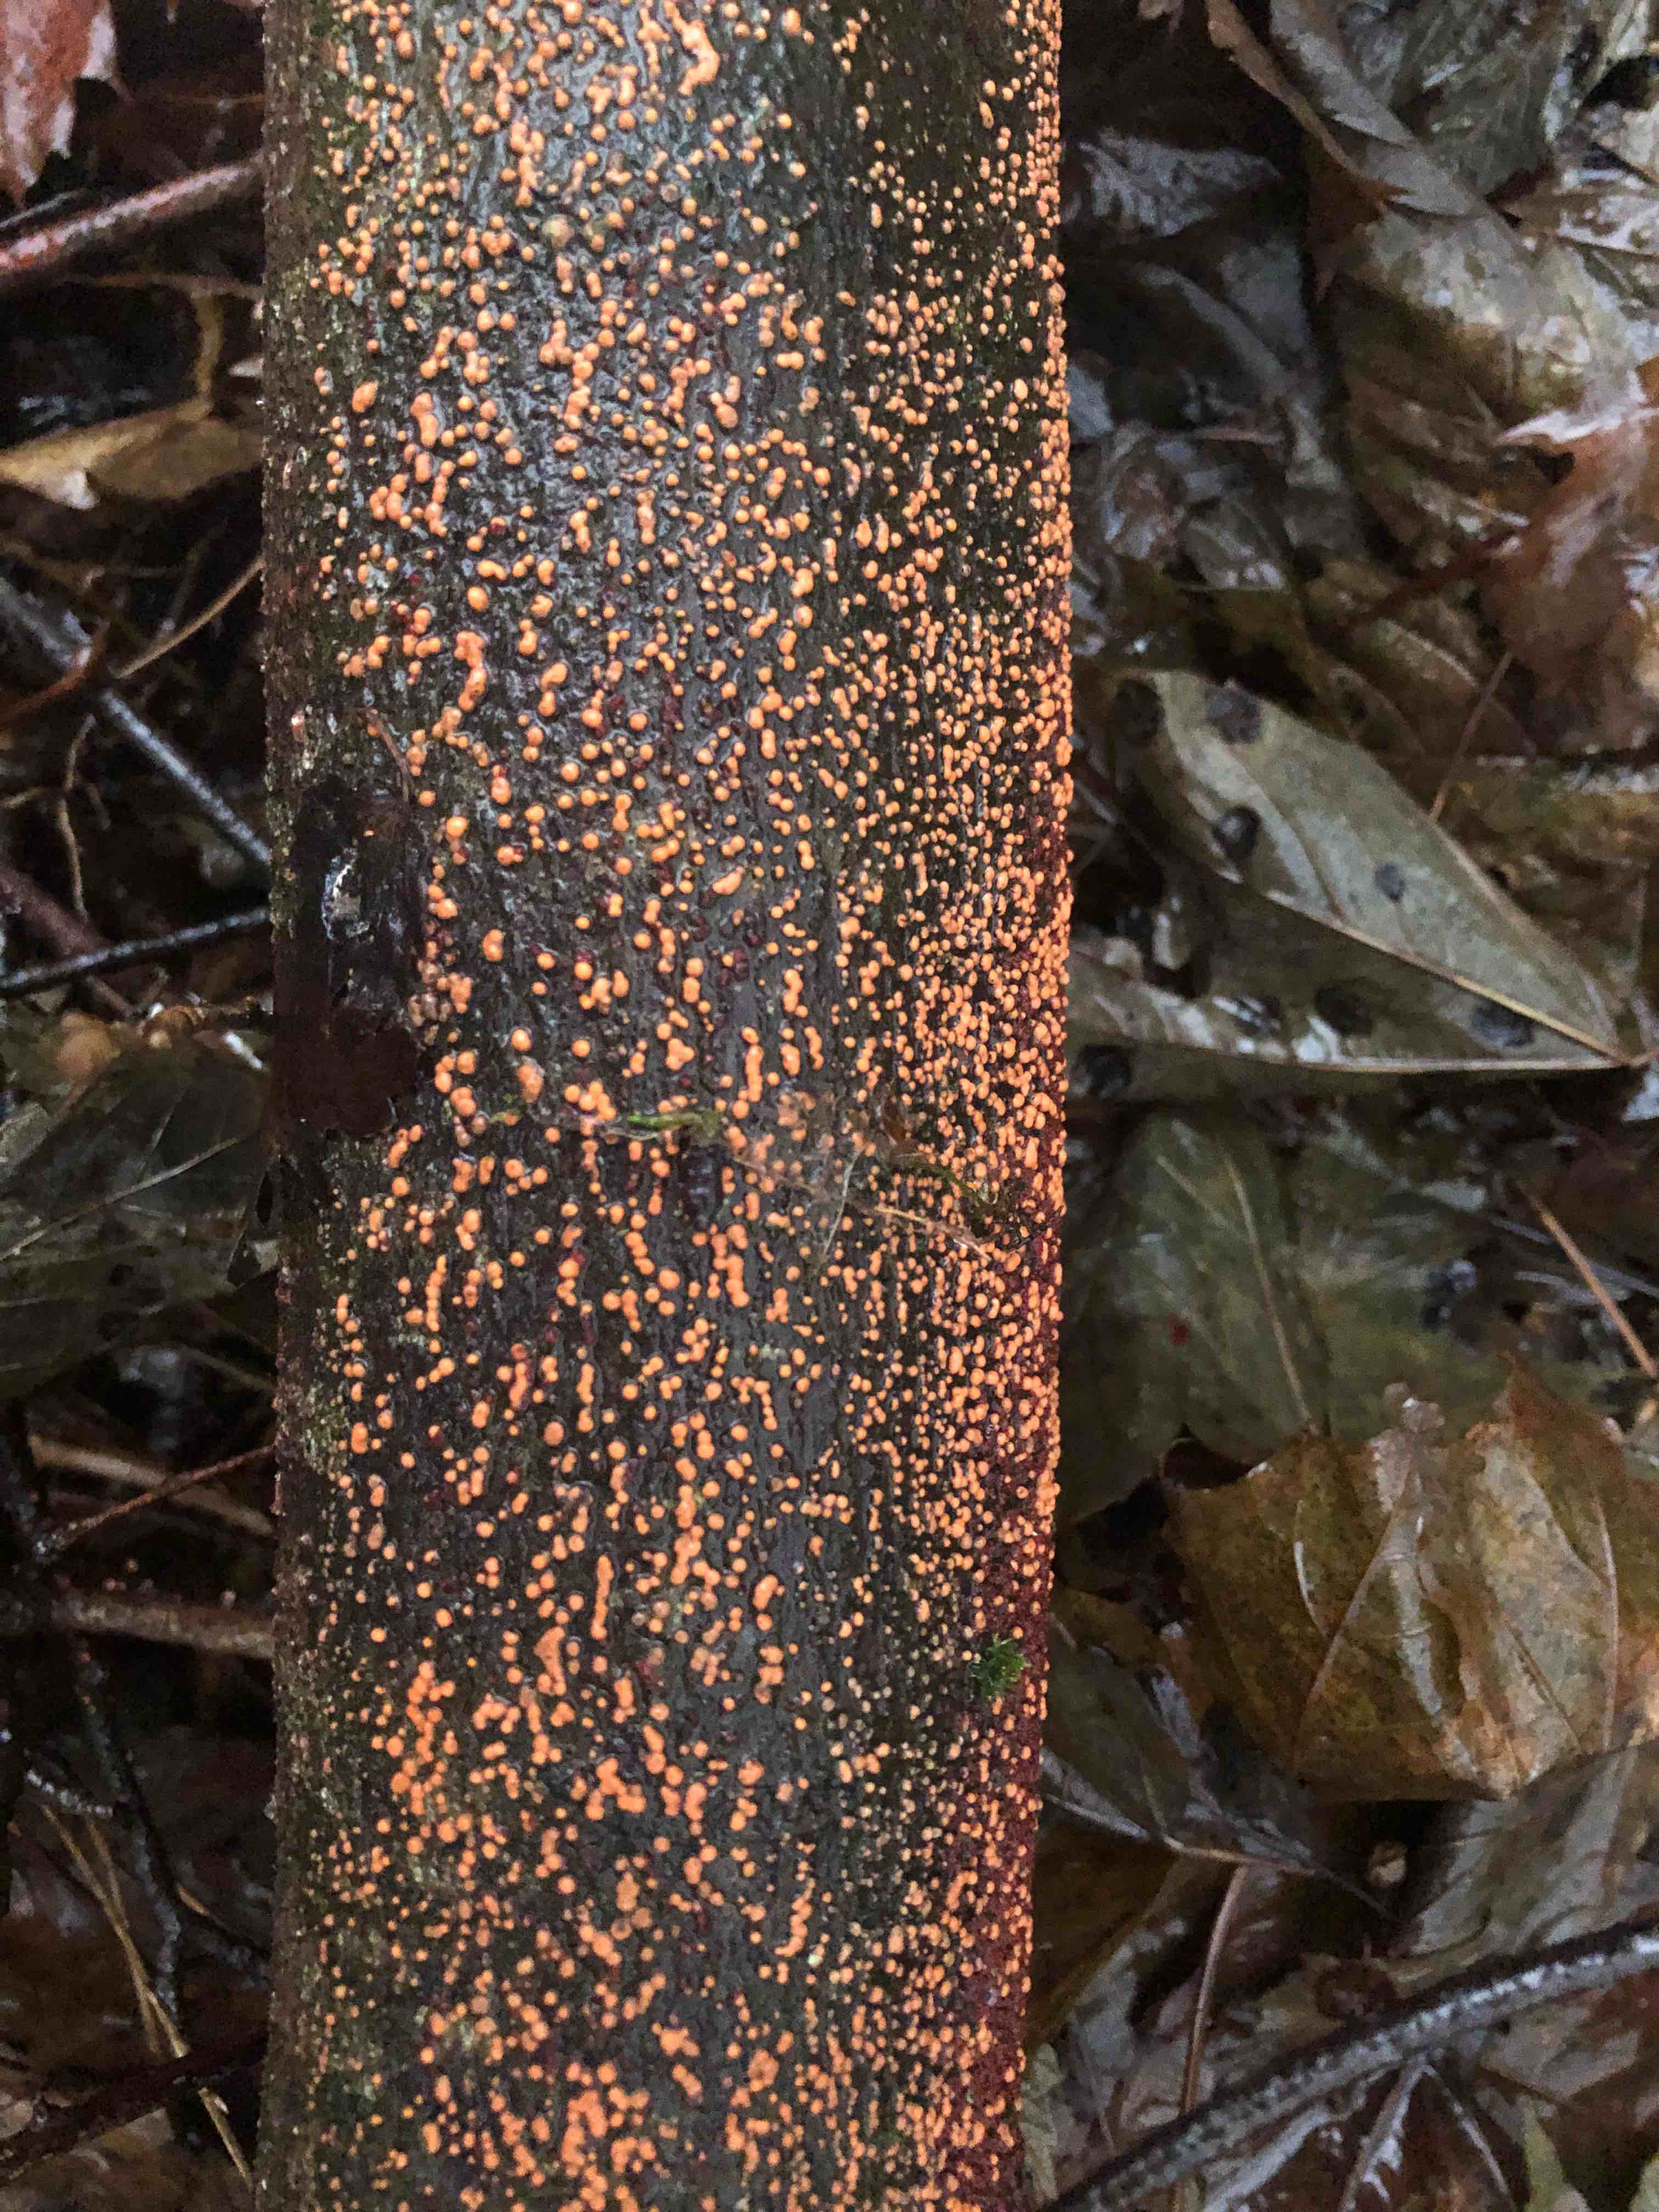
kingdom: Fungi
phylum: Ascomycota
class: Sordariomycetes
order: Hypocreales
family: Nectriaceae
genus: Nectria
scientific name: Nectria cinnabarina
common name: almindelig cinnobersvamp
